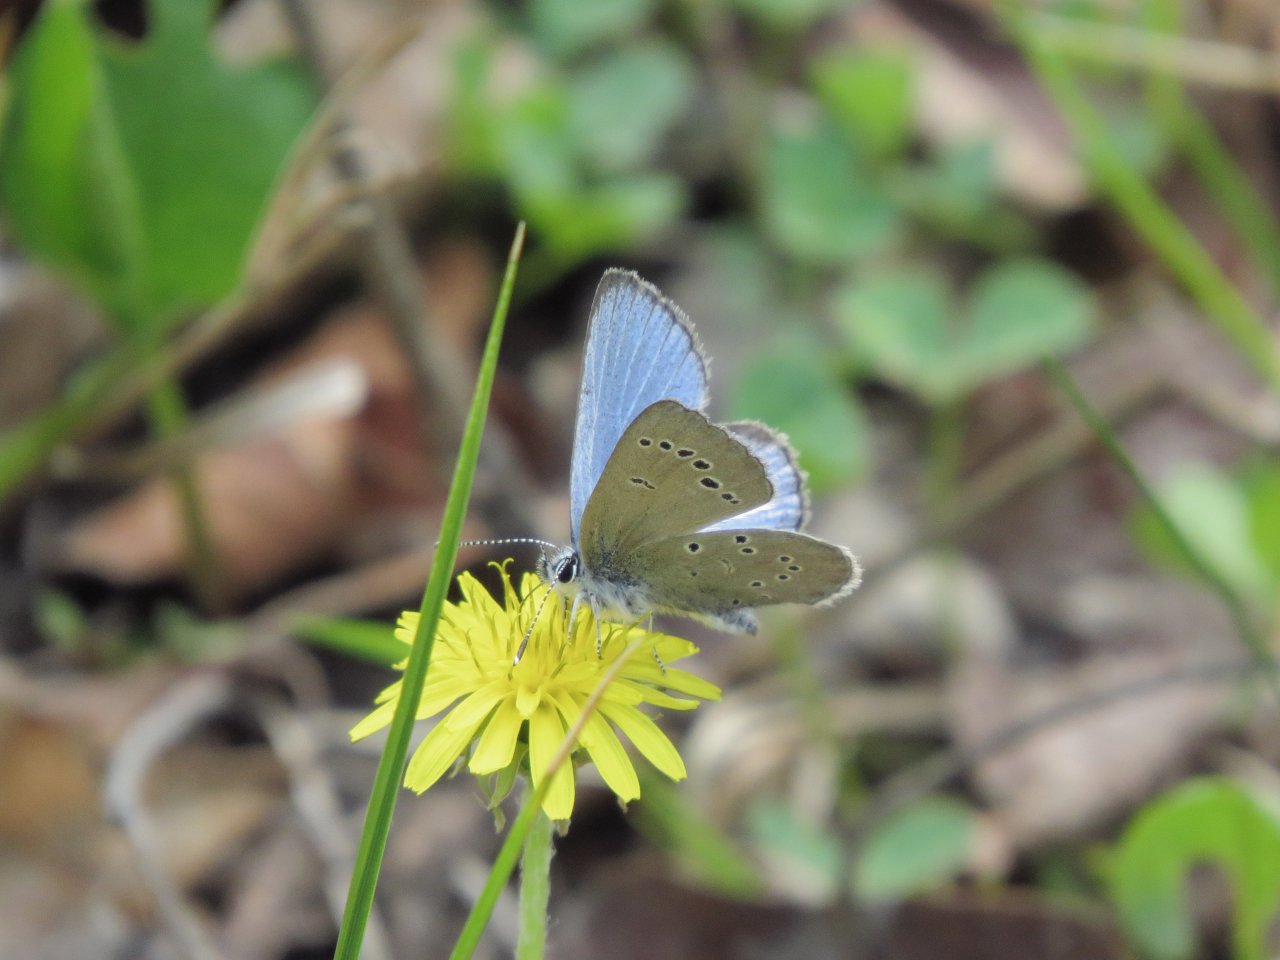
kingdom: Animalia
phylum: Arthropoda
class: Insecta
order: Lepidoptera
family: Lycaenidae
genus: Glaucopsyche
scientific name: Glaucopsyche lygdamus
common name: Silvery Blue
